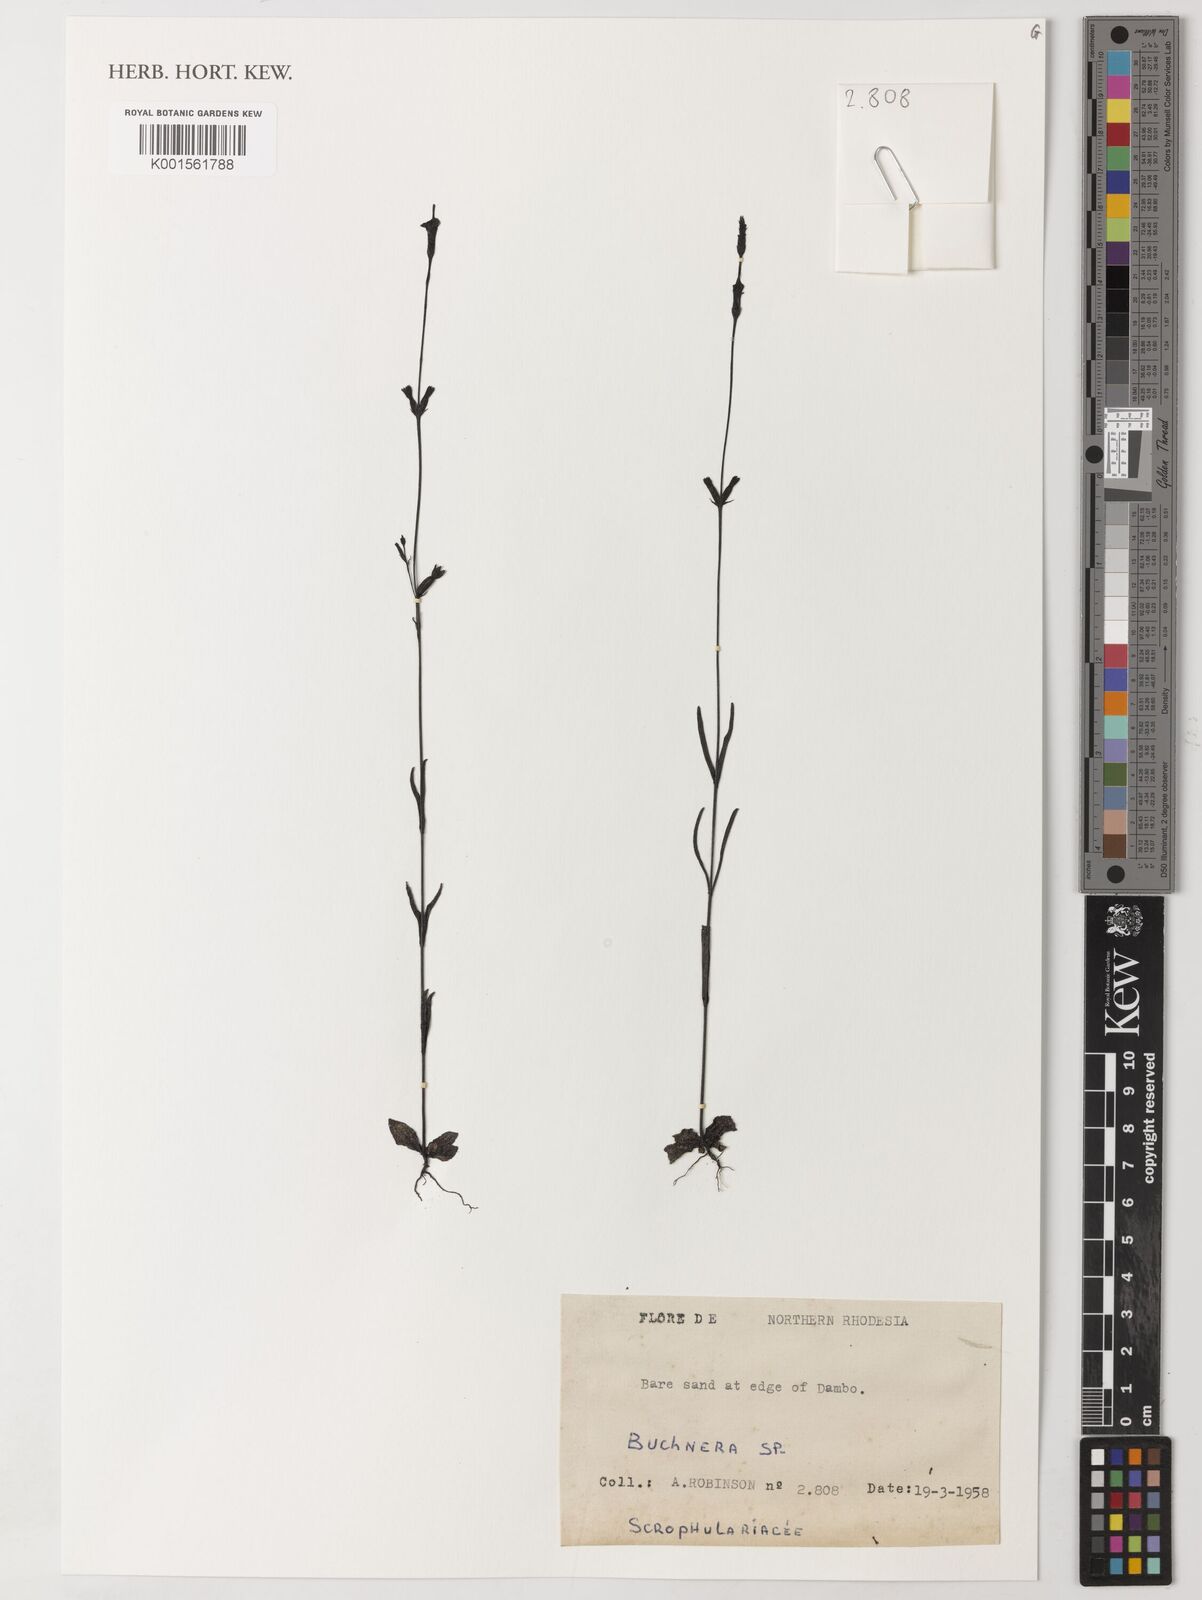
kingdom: Plantae
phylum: Tracheophyta
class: Magnoliopsida
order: Lamiales
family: Orobanchaceae
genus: Buchnera
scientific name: Buchnera
